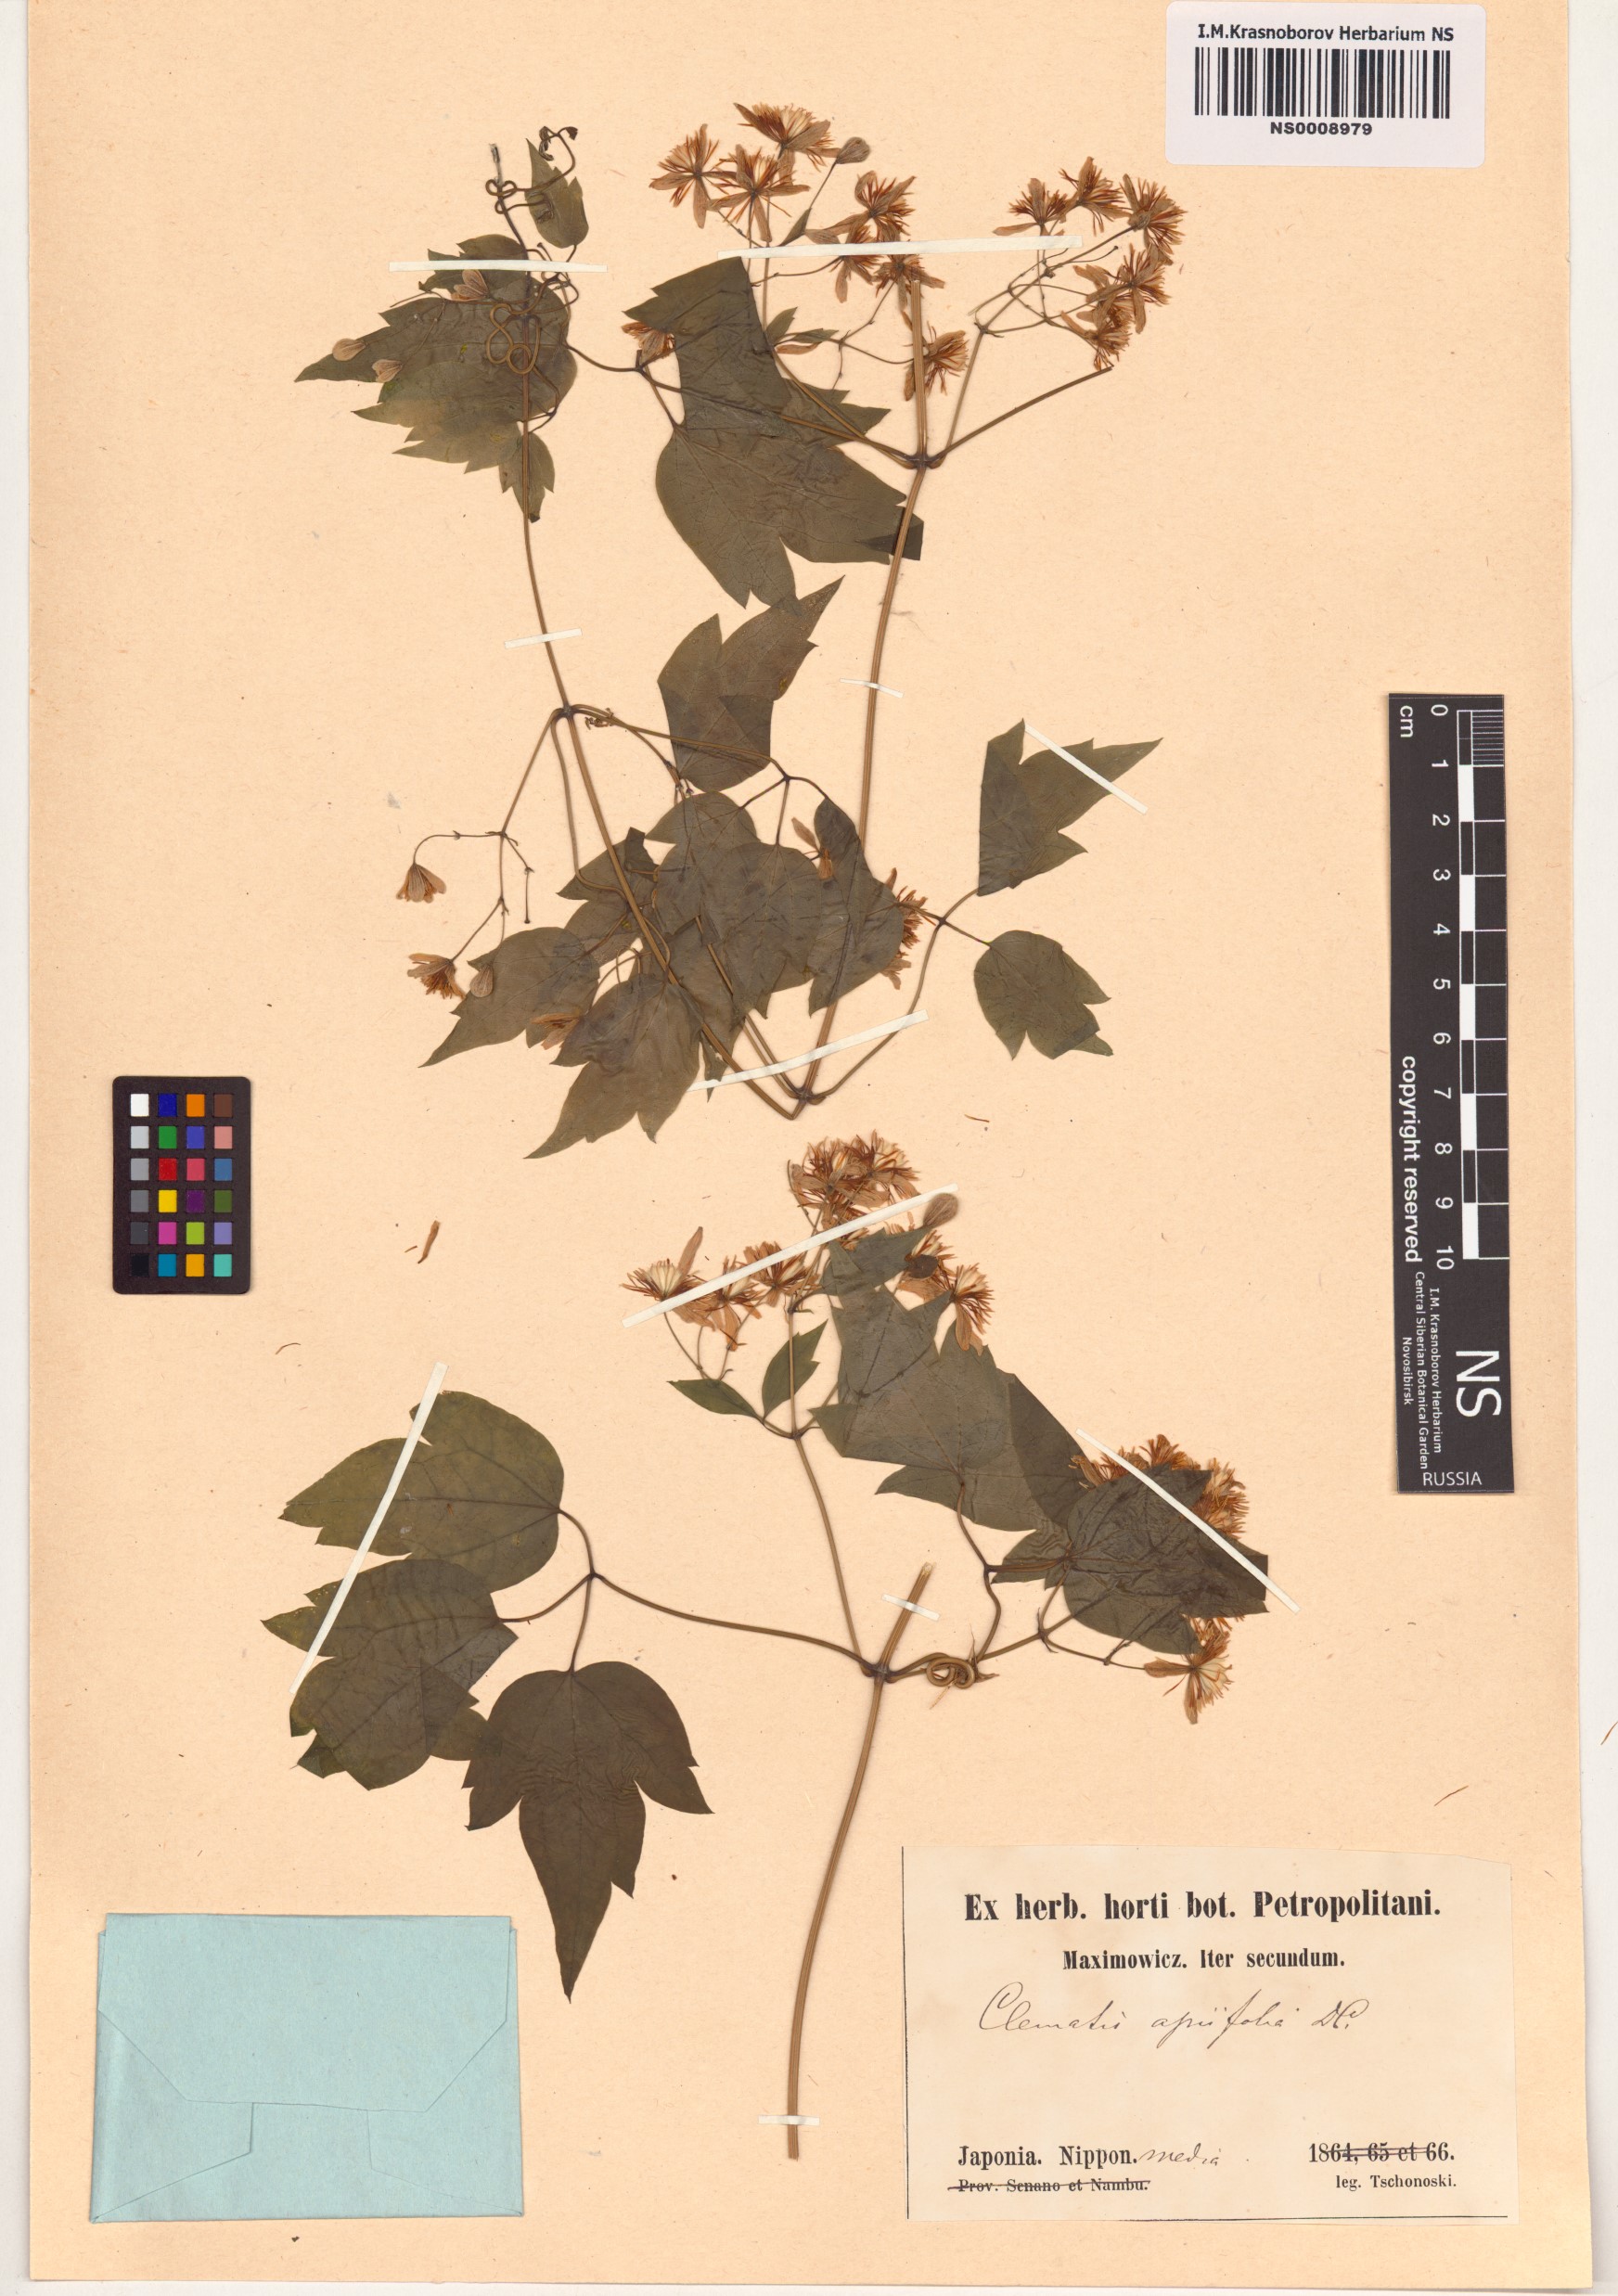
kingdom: Plantae
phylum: Tracheophyta
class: Magnoliopsida
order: Ranunculales
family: Ranunculaceae
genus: Clematis
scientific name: Clematis apiifolia
